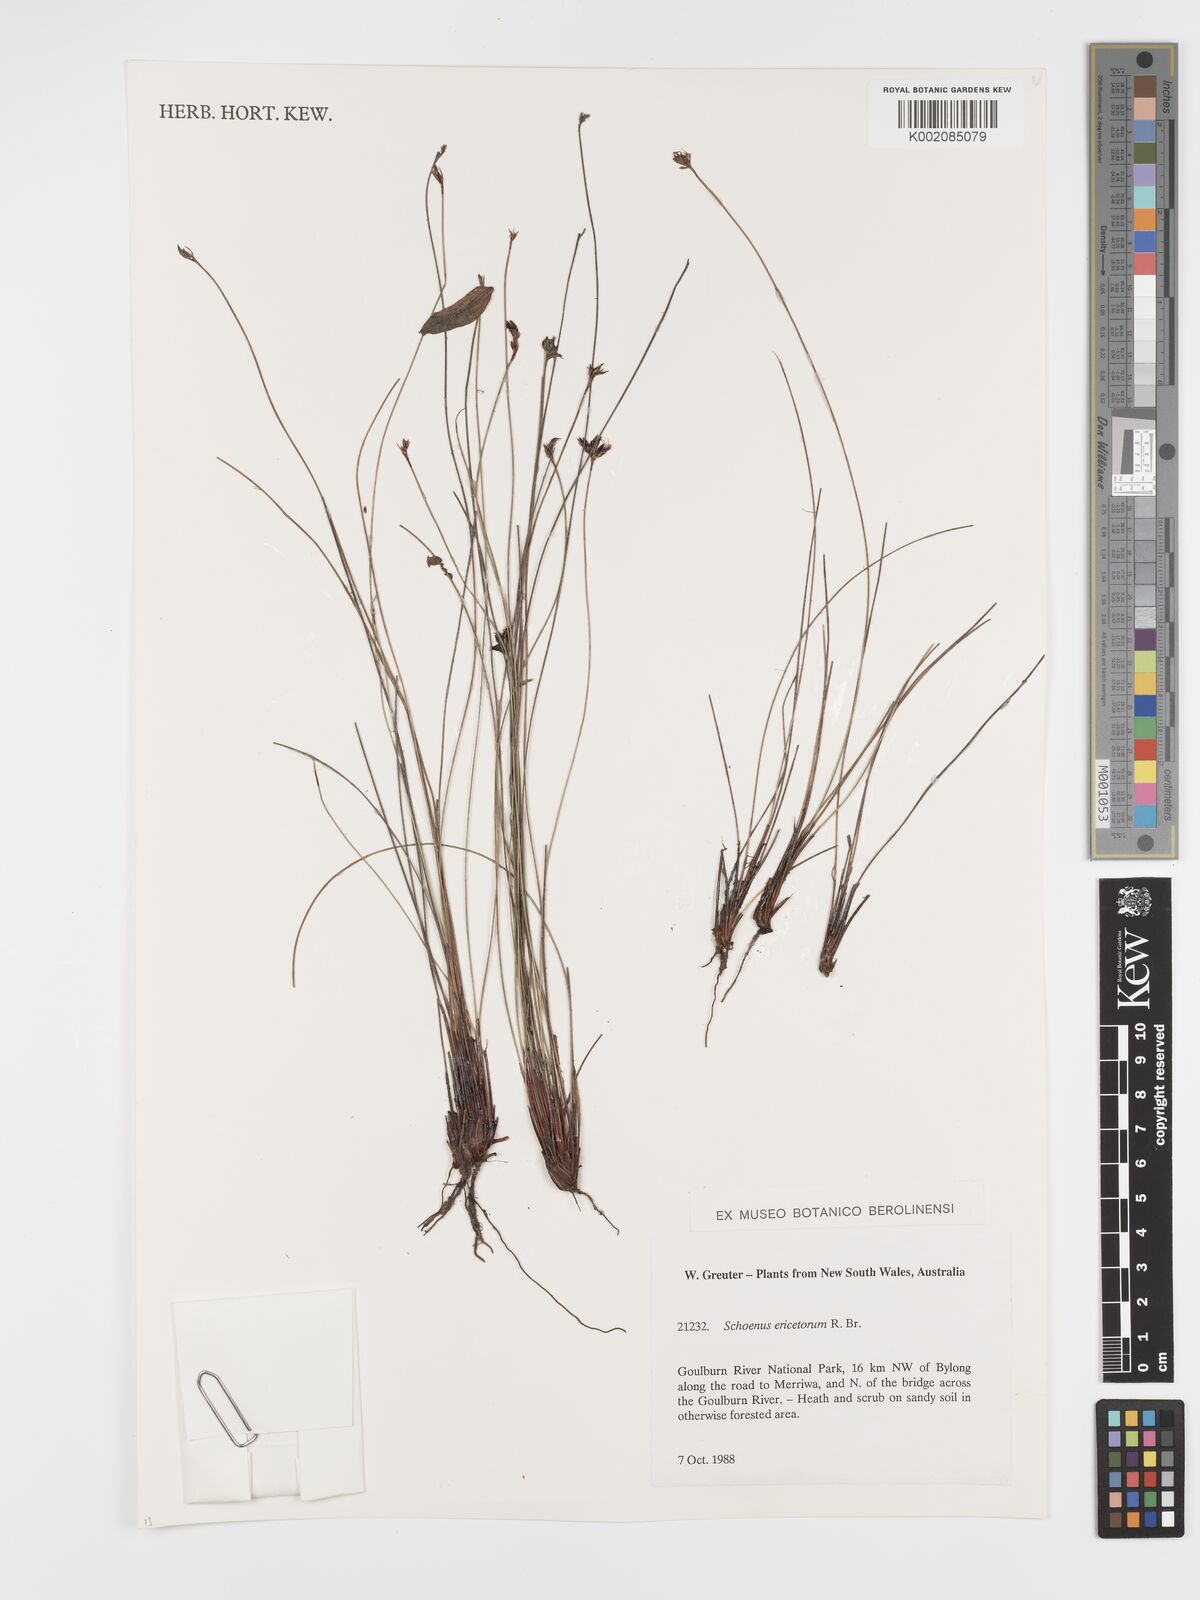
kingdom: Plantae
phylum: Tracheophyta
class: Liliopsida
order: Poales
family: Cyperaceae
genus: Schoenus
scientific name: Schoenus ericetorum
